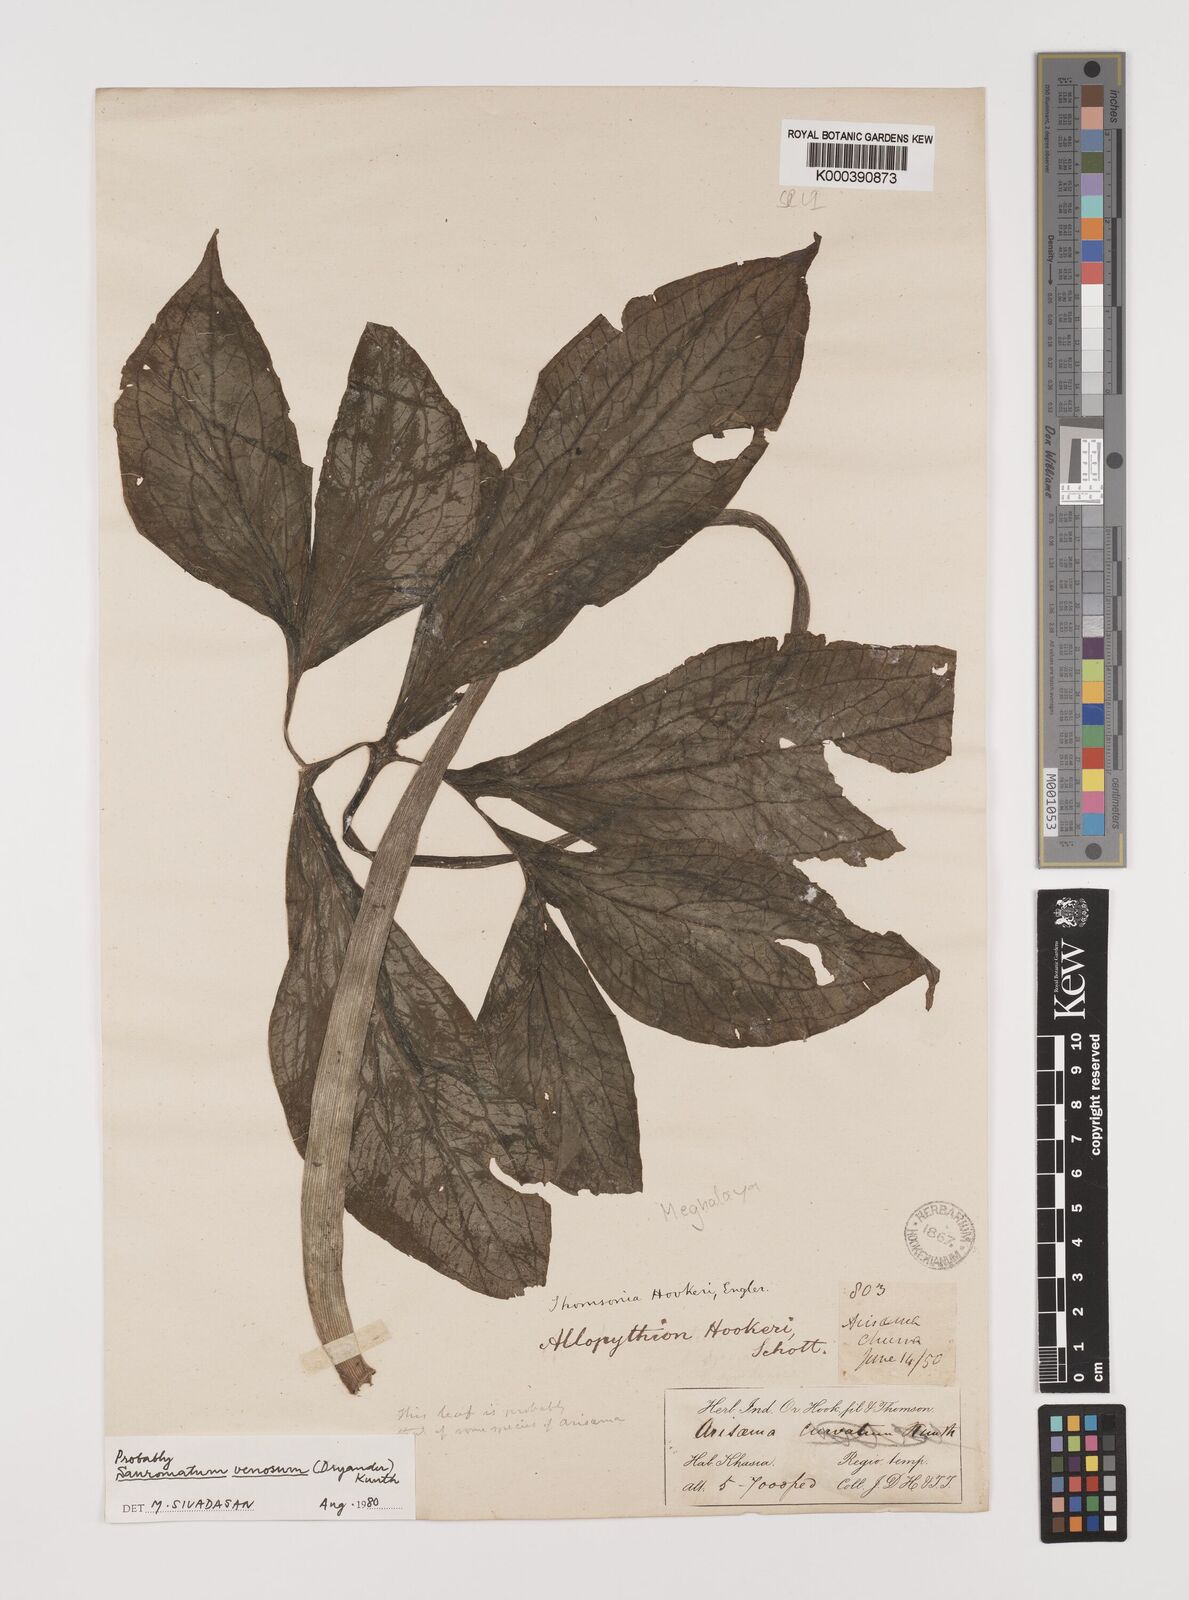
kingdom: Plantae
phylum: Tracheophyta
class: Liliopsida
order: Alismatales
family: Araceae
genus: Sauromatum
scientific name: Sauromatum venosum
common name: Voodoo lily
